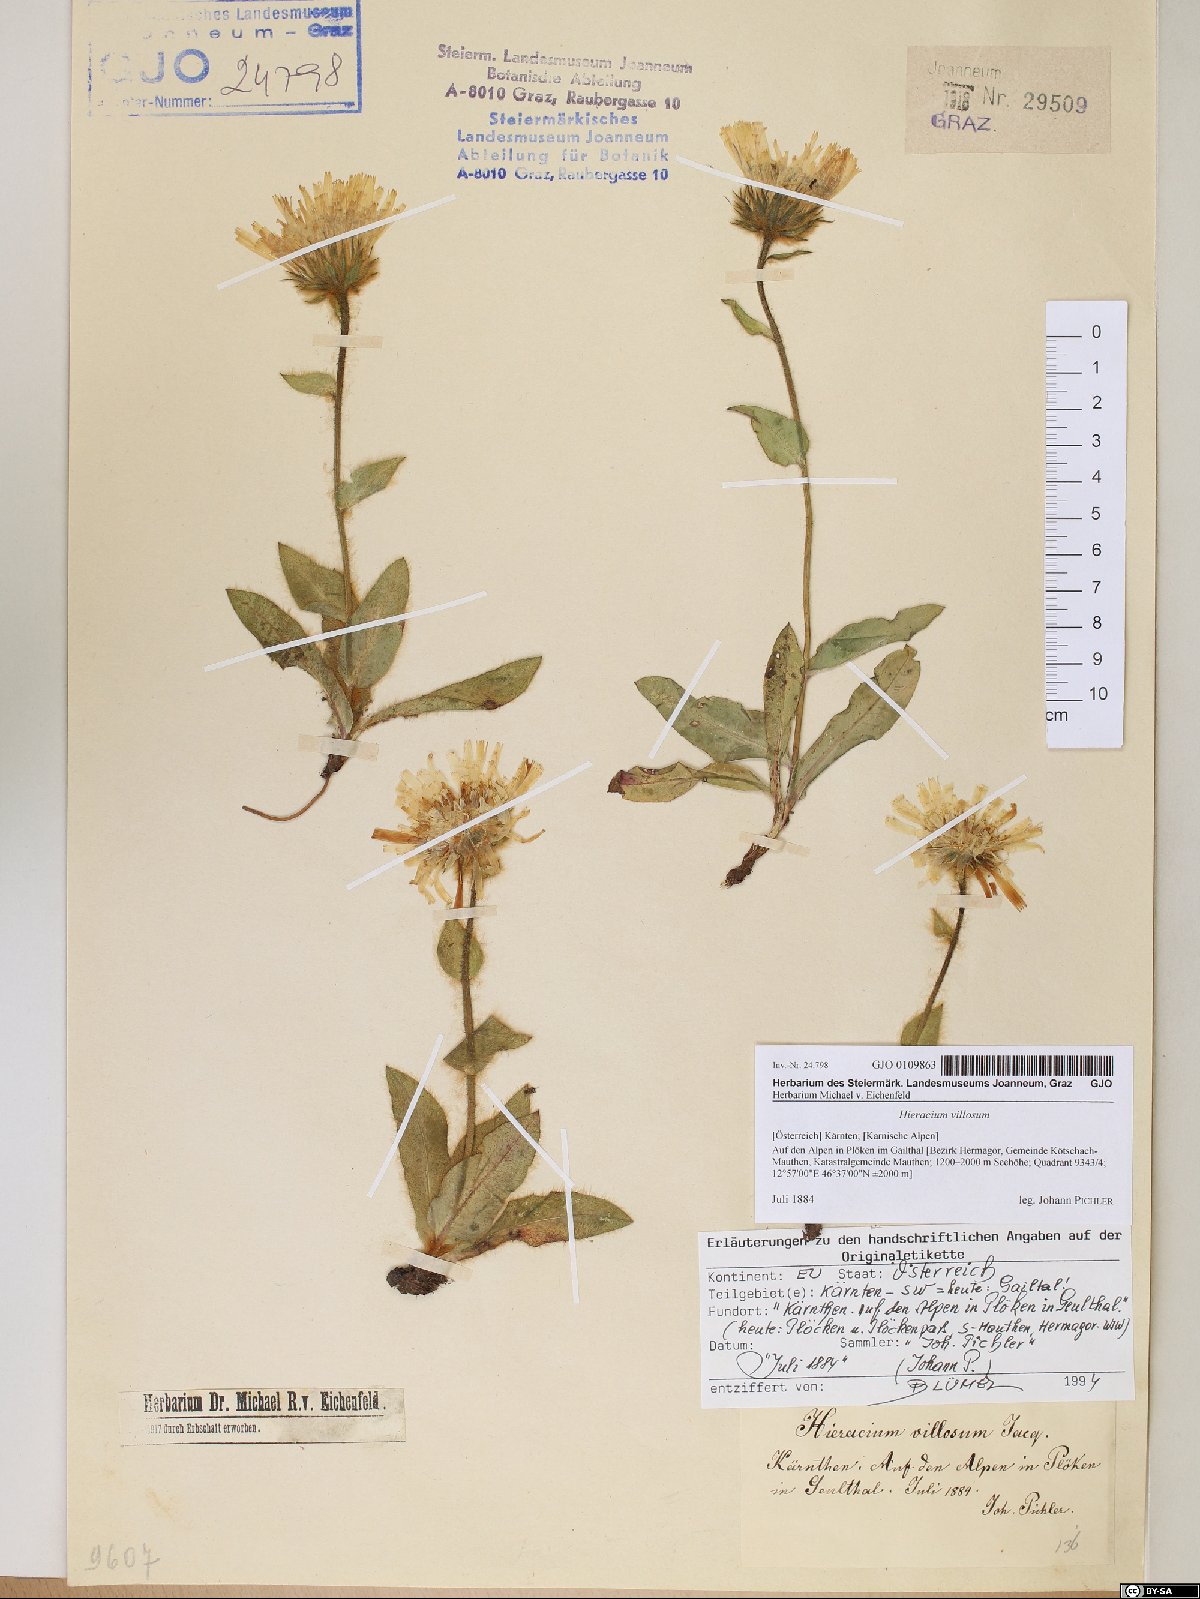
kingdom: Plantae
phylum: Tracheophyta
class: Magnoliopsida
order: Asterales
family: Asteraceae
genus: Hieracium
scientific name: Hieracium villosum
